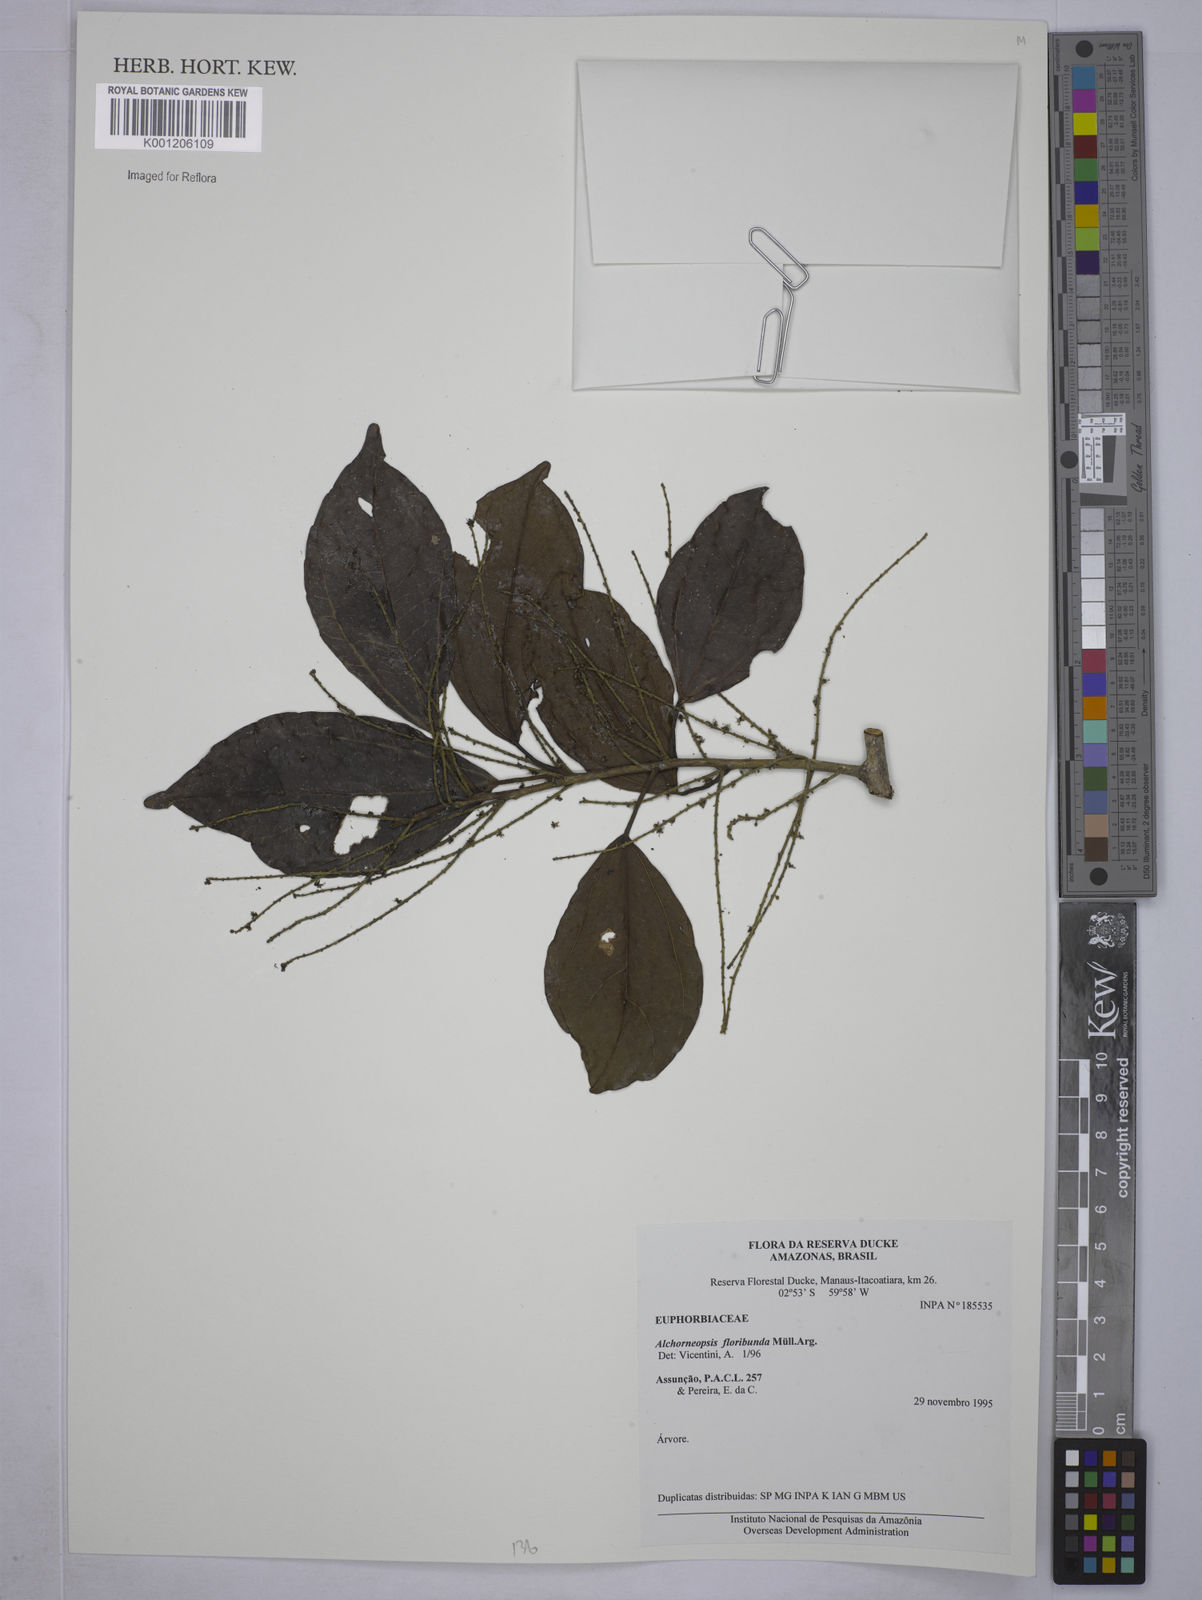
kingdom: Plantae
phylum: Tracheophyta
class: Magnoliopsida
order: Malpighiales
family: Euphorbiaceae
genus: Alchorneopsis
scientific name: Alchorneopsis
